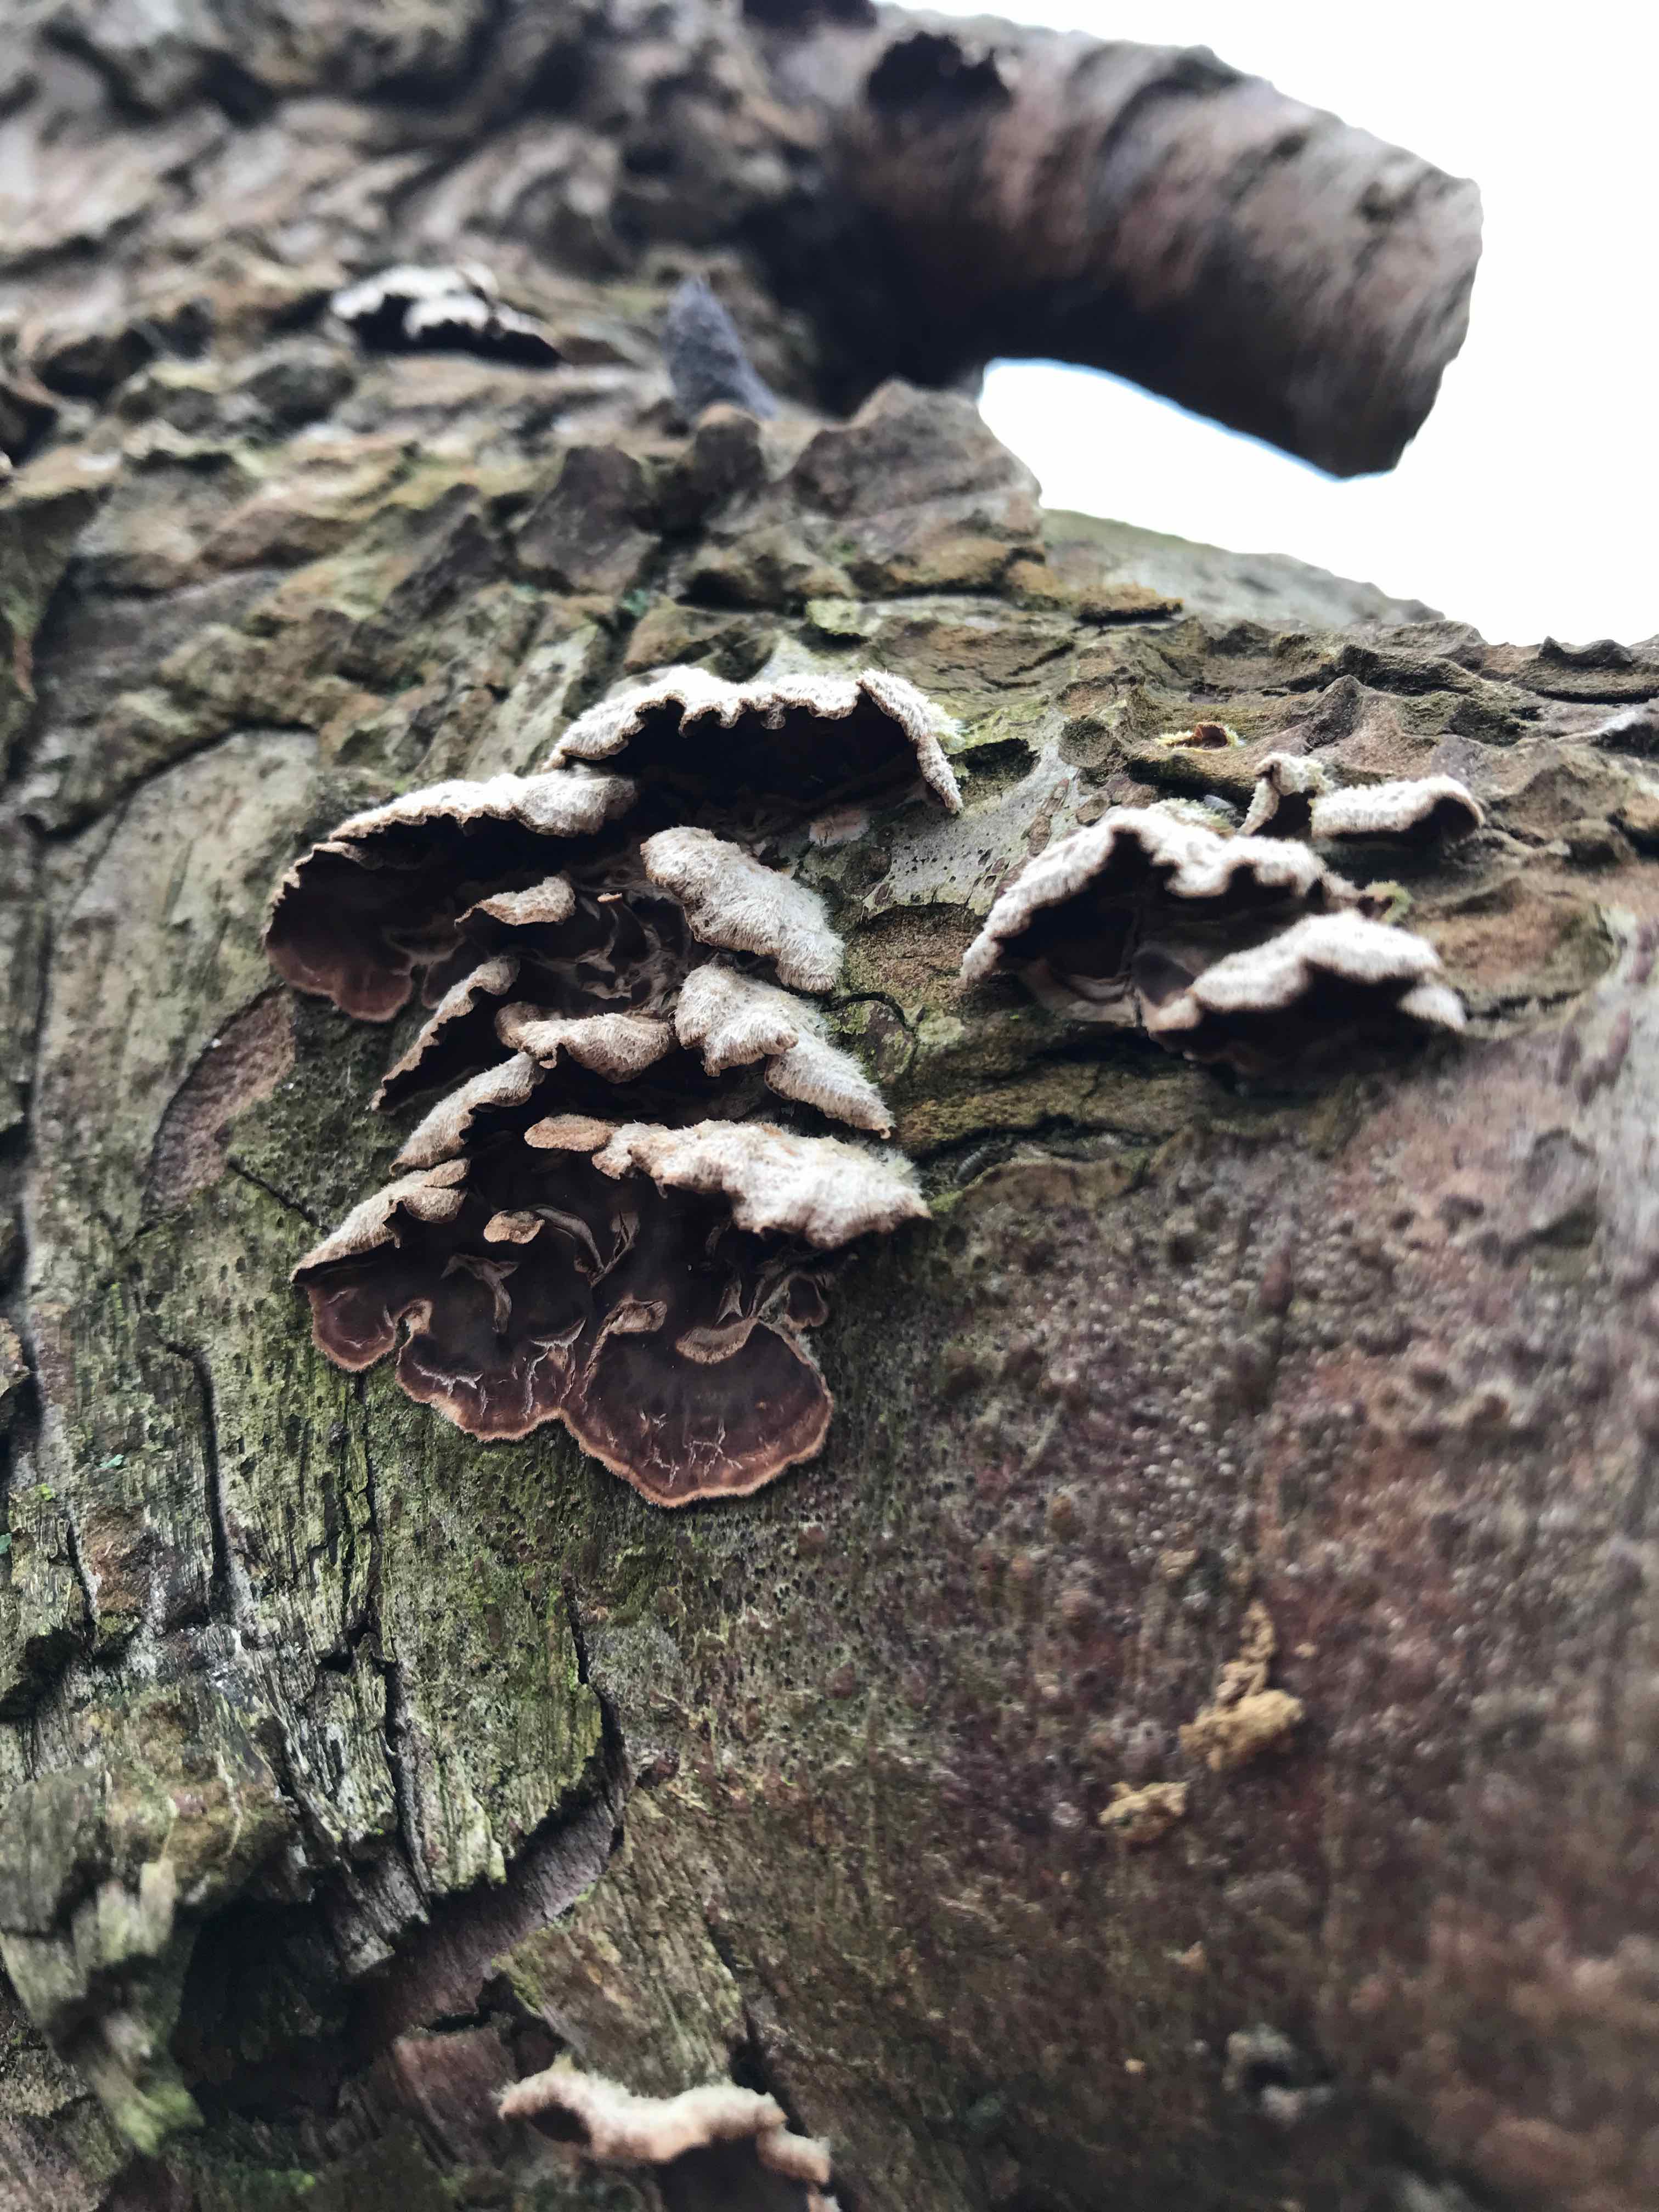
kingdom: Fungi
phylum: Basidiomycota
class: Agaricomycetes
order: Agaricales
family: Cyphellaceae
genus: Chondrostereum
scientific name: Chondrostereum purpureum
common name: purpurlædersvamp
